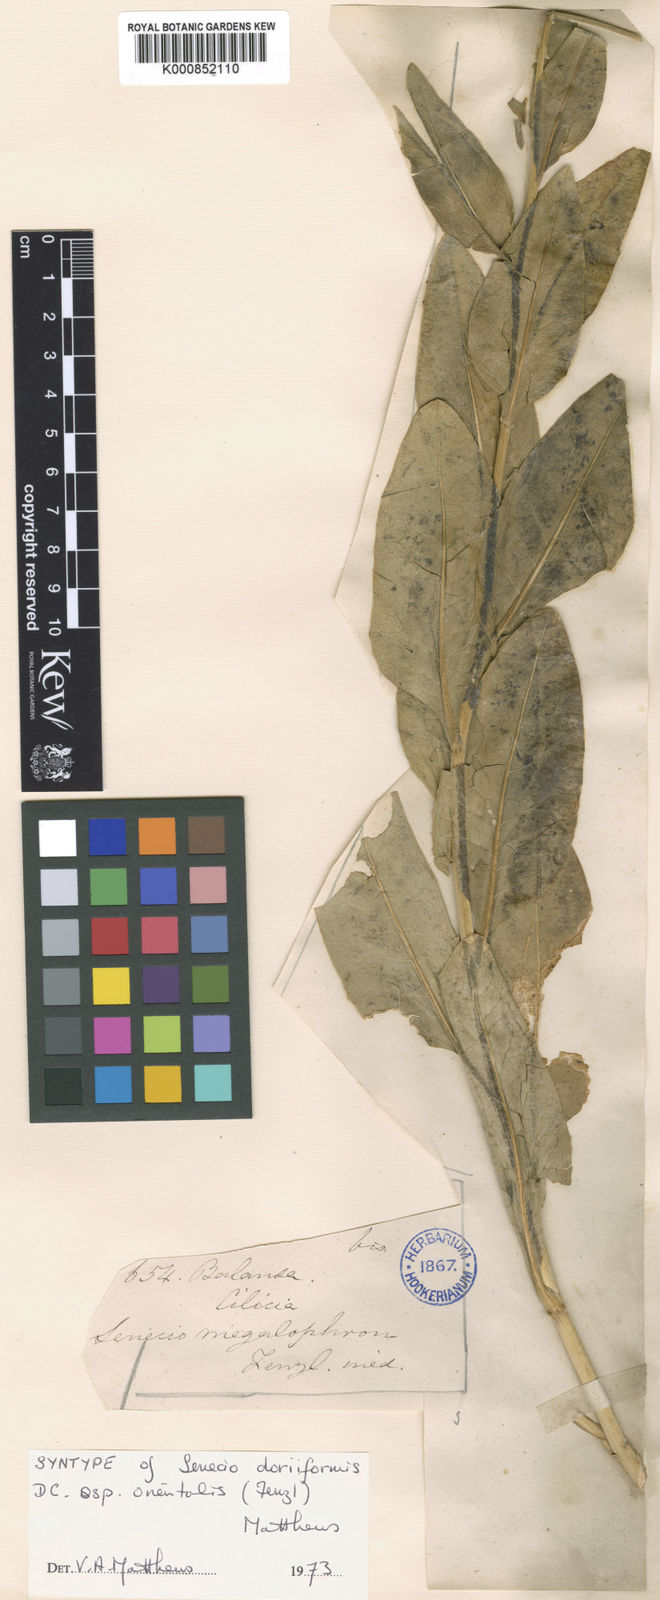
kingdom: Plantae
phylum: Tracheophyta
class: Magnoliopsida
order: Asterales
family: Asteraceae
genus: Senecio
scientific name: Senecio doriiformis
